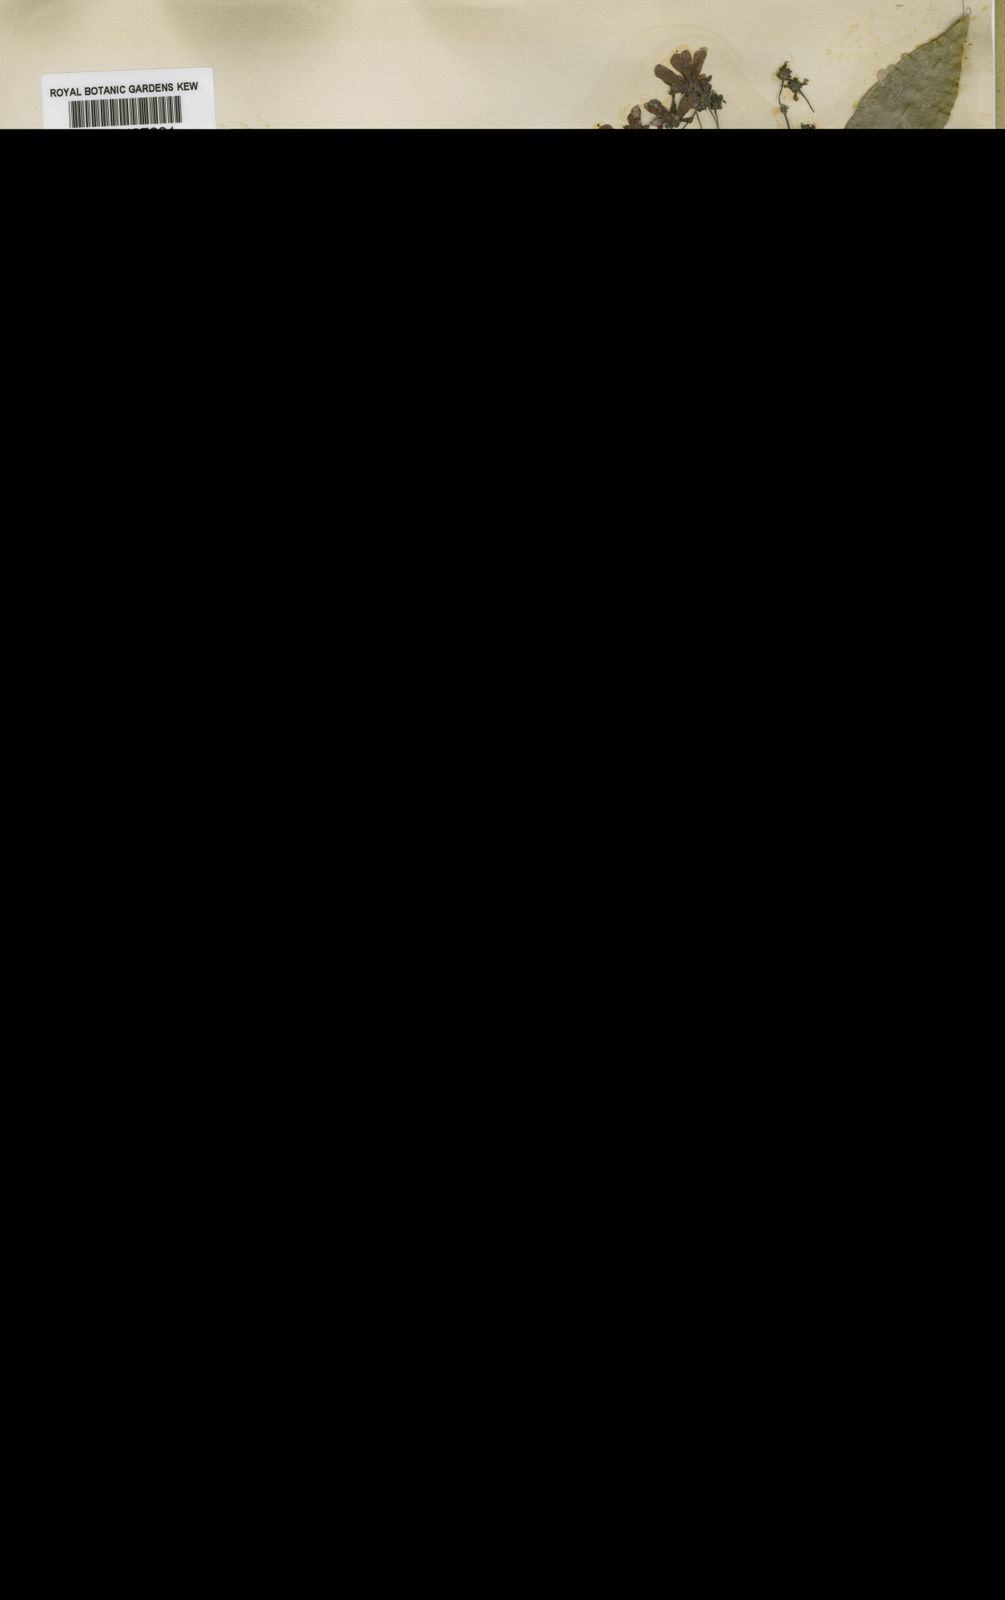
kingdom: Plantae
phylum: Tracheophyta
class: Magnoliopsida
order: Malpighiales
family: Malpighiaceae
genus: Tetrapterys
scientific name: Tetrapterys mucronata
